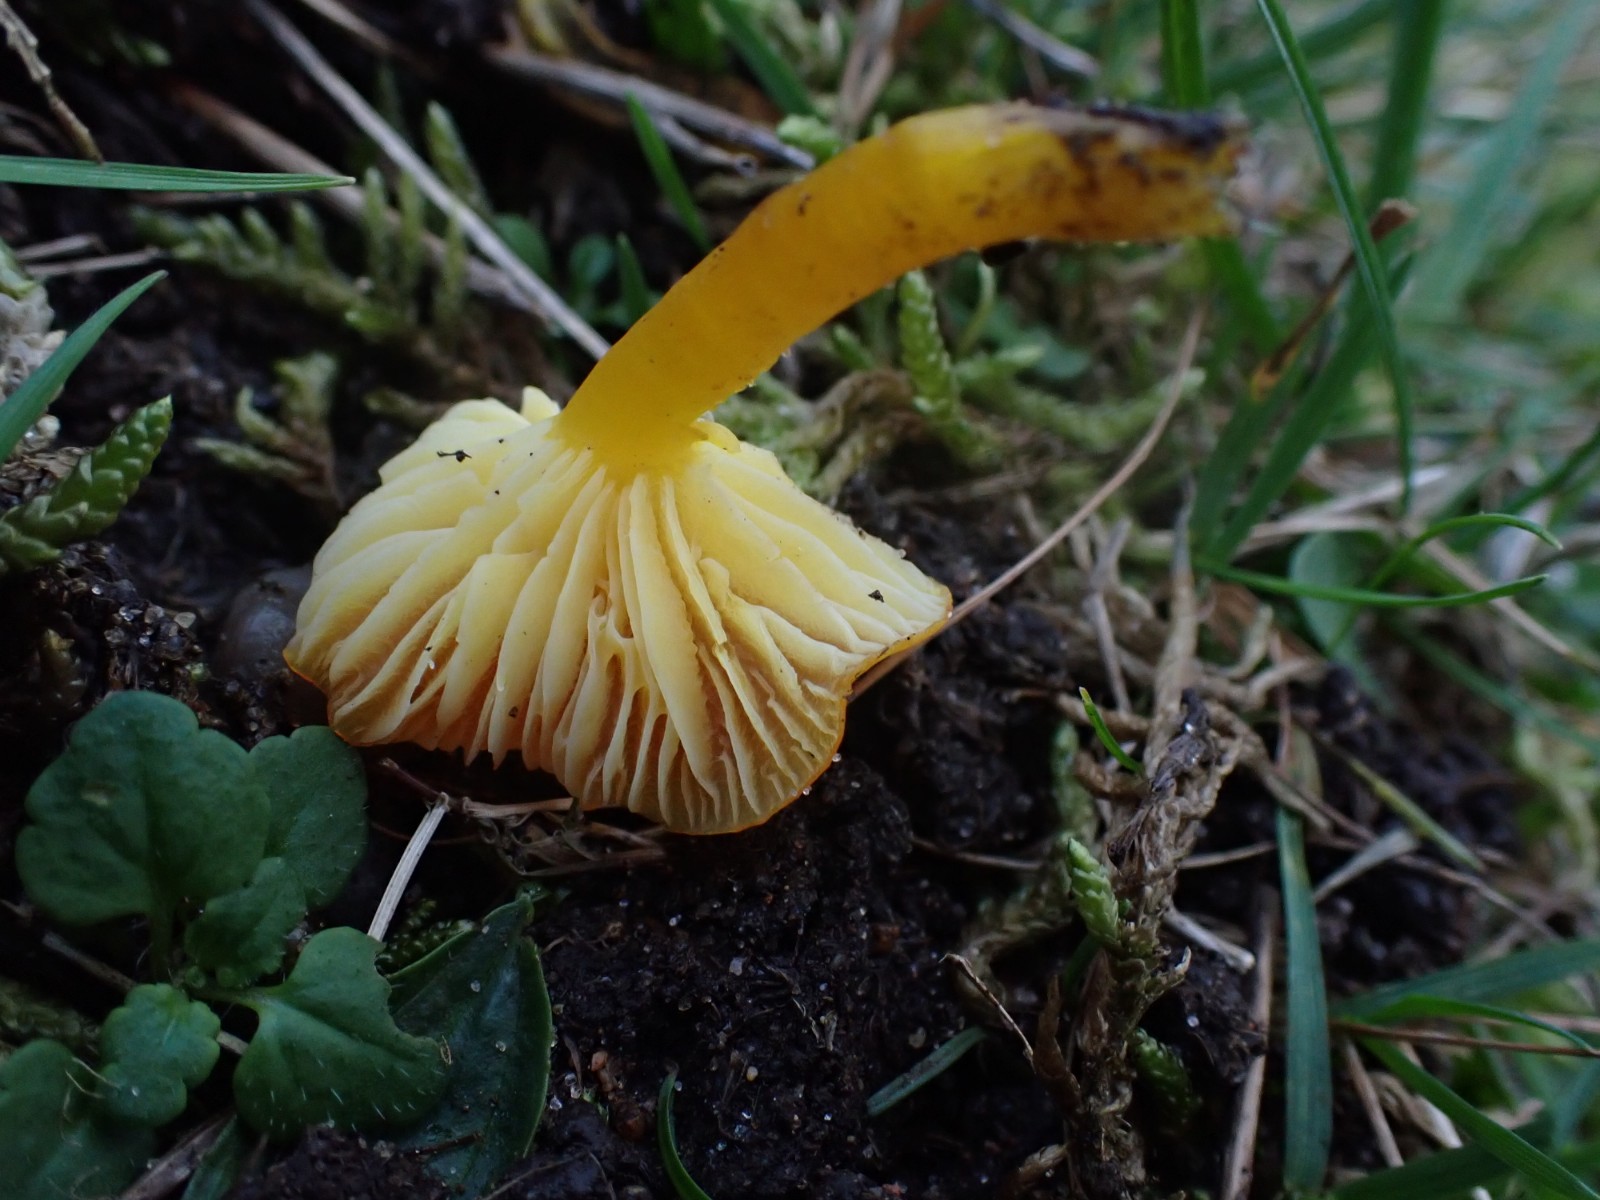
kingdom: Fungi
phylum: Basidiomycota
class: Agaricomycetes
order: Agaricales
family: Hygrophoraceae
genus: Hygrocybe
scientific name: Hygrocybe ceracea
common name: voksgul vokshat
